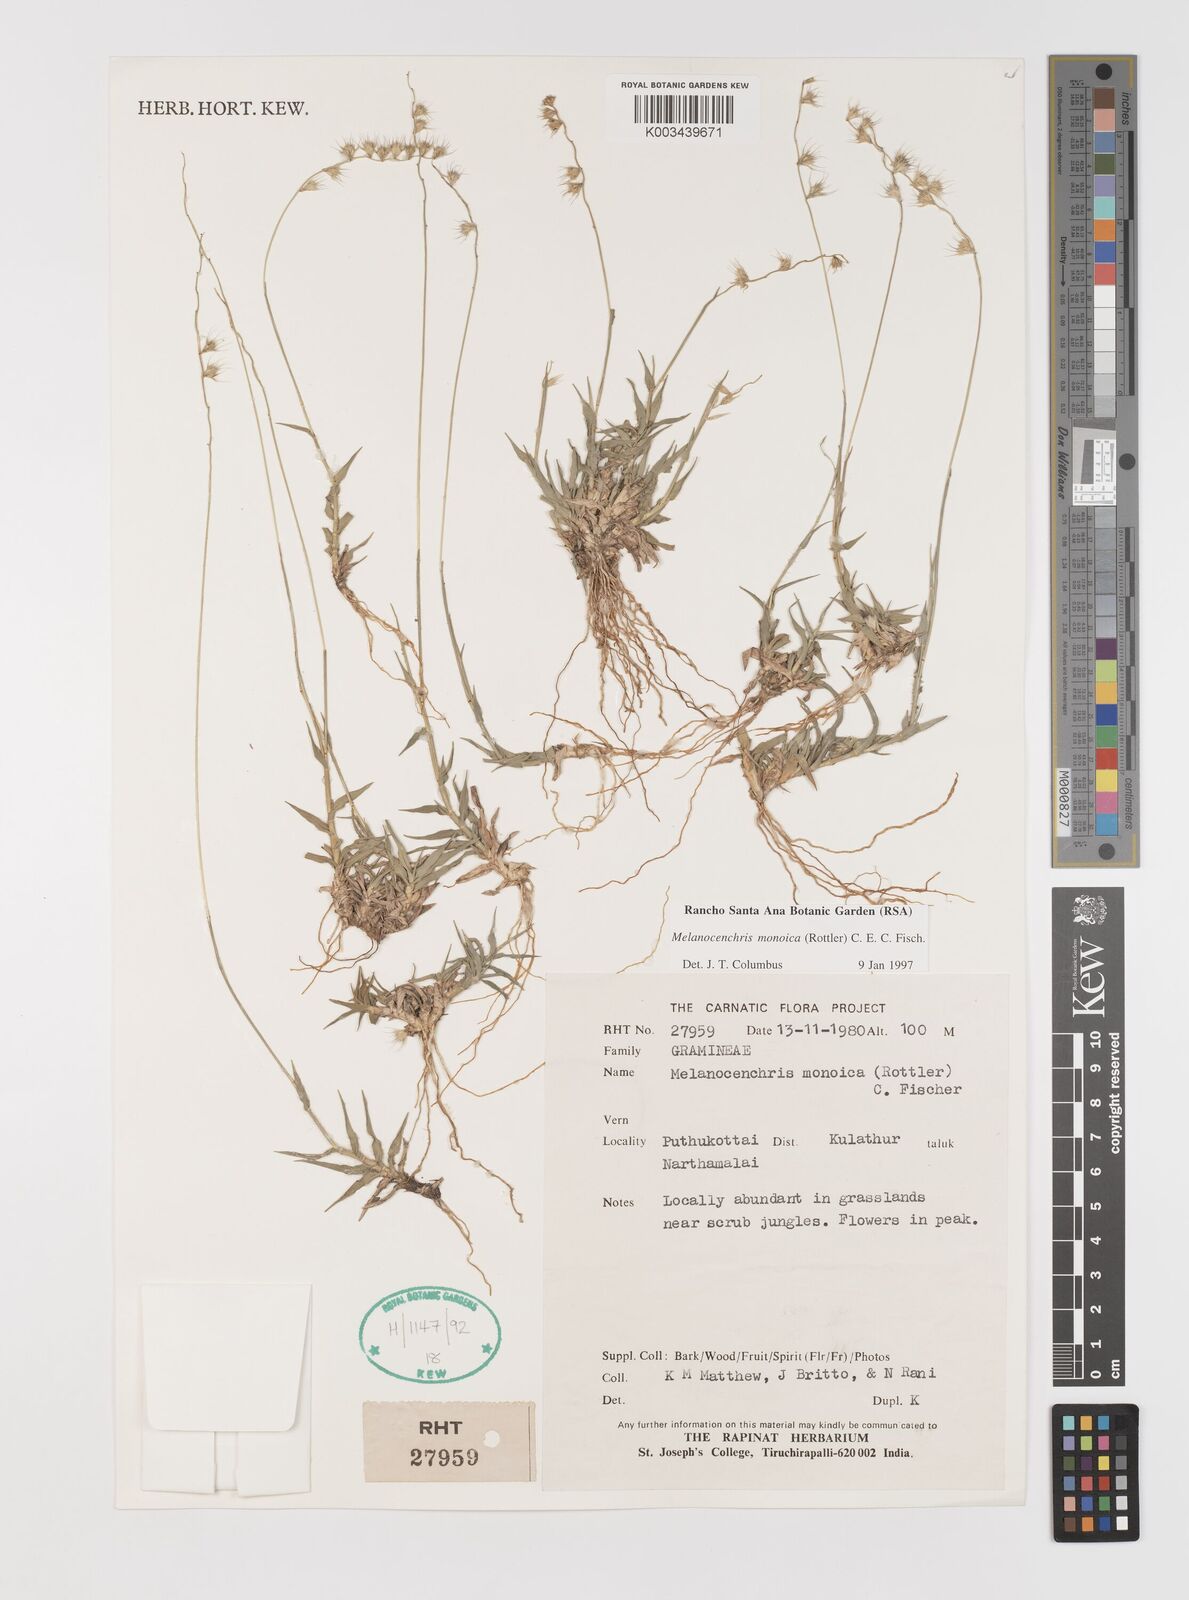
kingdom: Plantae
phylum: Tracheophyta
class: Liliopsida
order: Poales
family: Poaceae
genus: Melanocenchris
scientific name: Melanocenchris rothiana
